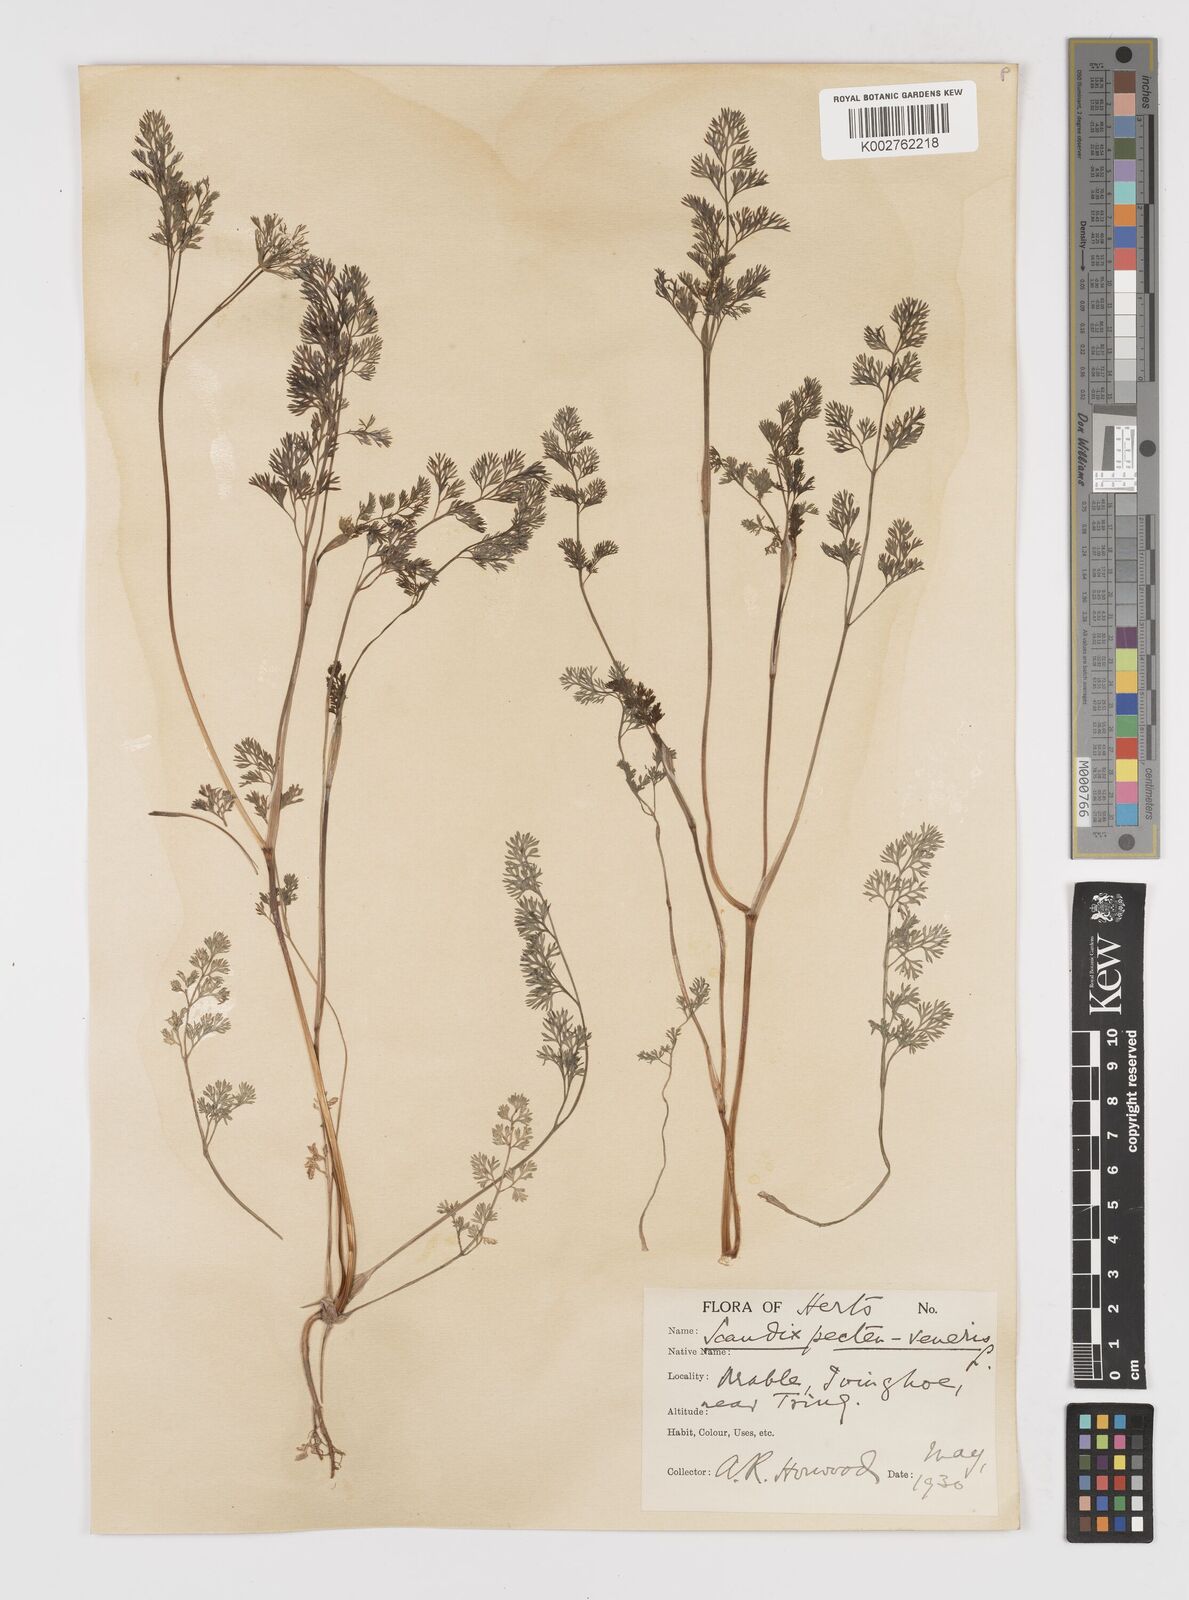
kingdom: Plantae
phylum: Tracheophyta
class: Magnoliopsida
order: Apiales
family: Apiaceae
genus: Scandix
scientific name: Scandix pecten-veneris
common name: Shepherd's-needle
